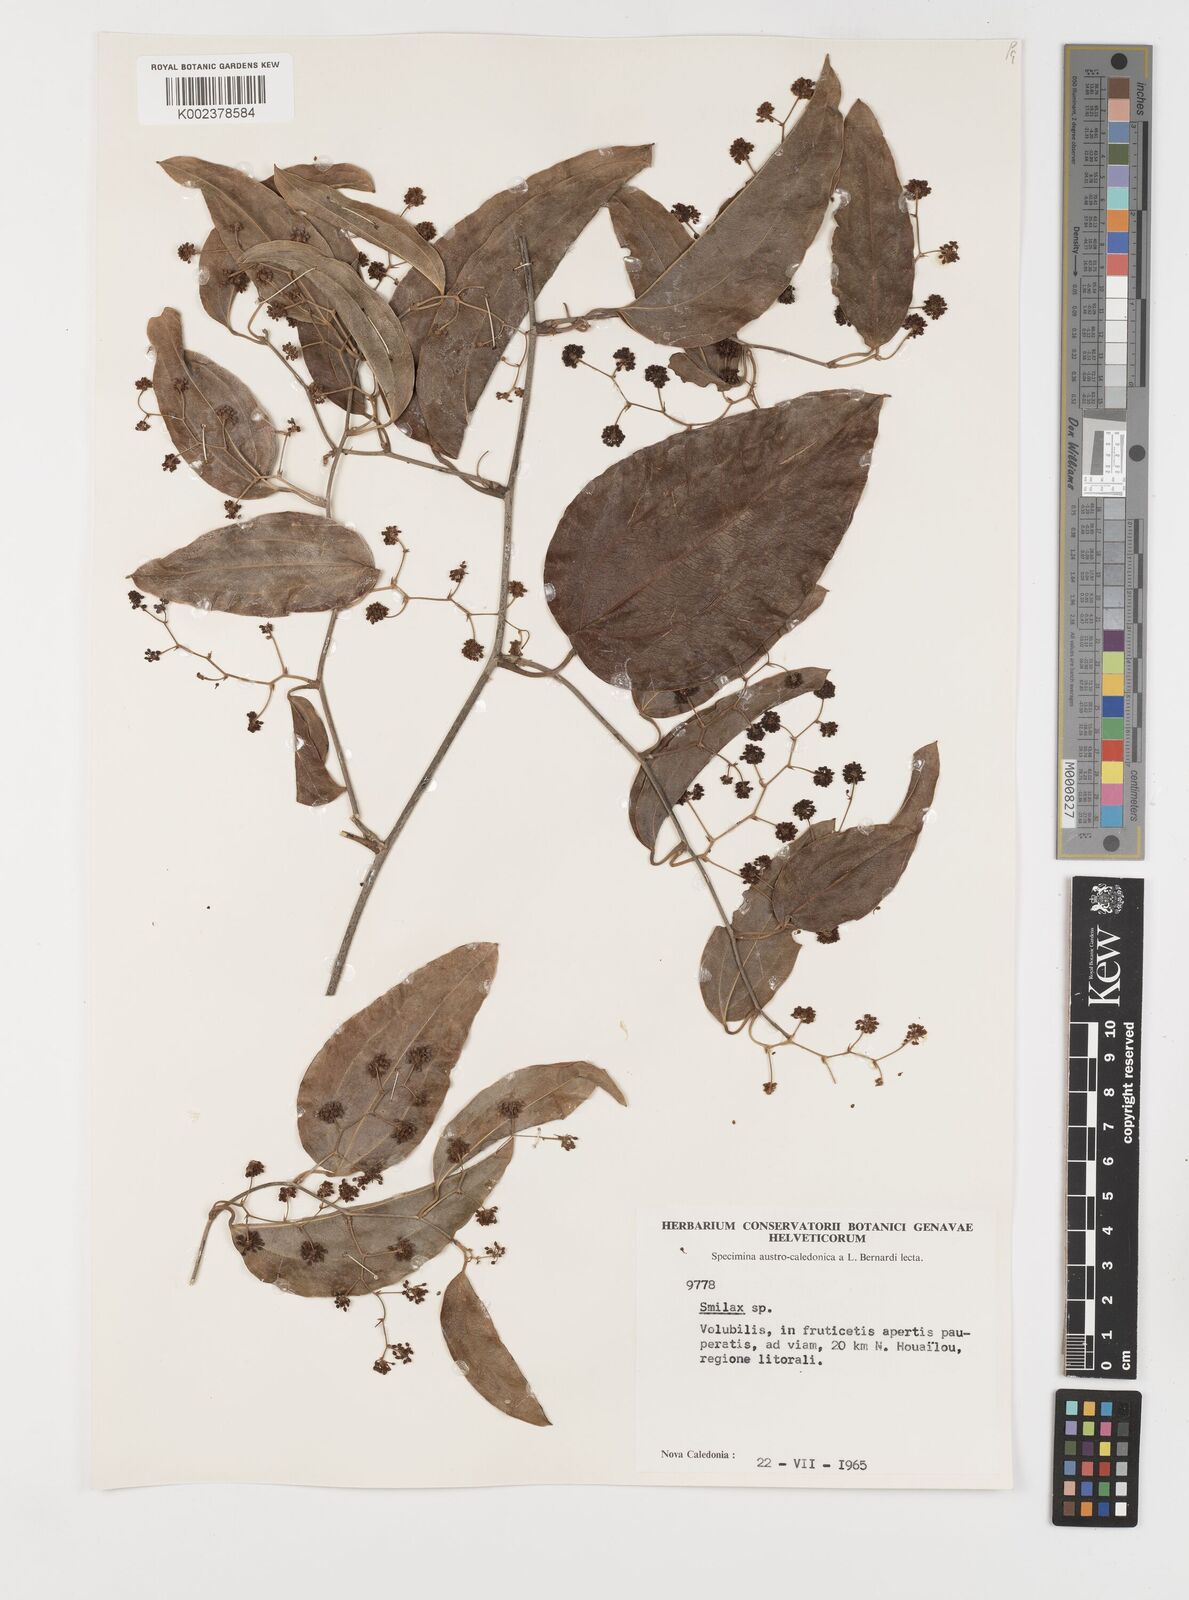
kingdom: Plantae
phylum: Tracheophyta
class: Liliopsida
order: Liliales
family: Smilacaceae
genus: Smilax
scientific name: Smilax
